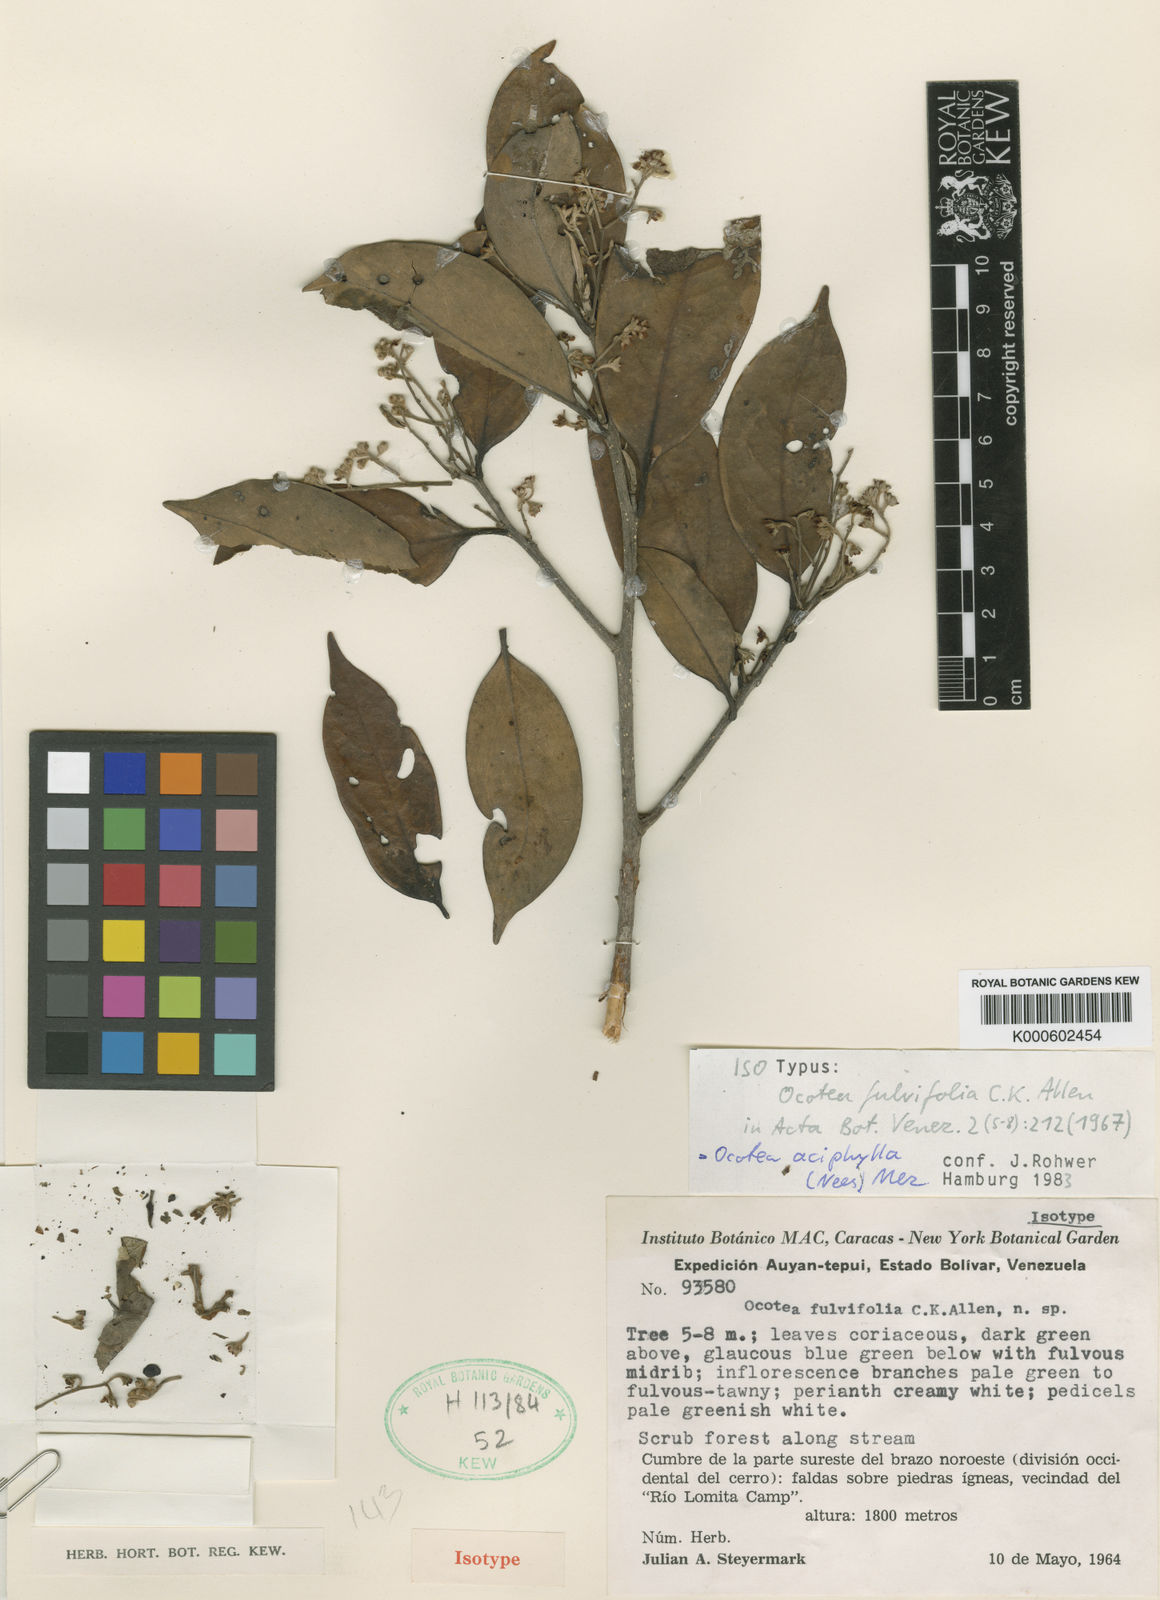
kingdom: Plantae
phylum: Tracheophyta
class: Magnoliopsida
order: Laurales
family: Lauraceae
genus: Ocotea
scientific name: Ocotea aciphylla
